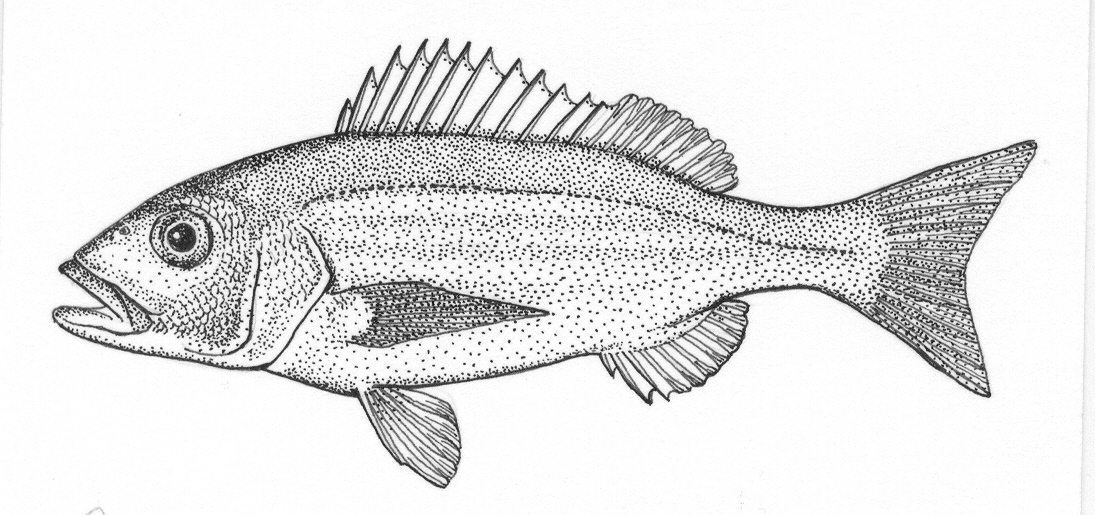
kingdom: Animalia
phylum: Chordata
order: Perciformes
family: Sparidae
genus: Argyrozona
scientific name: Argyrozona argyrozona
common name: Carpenter
